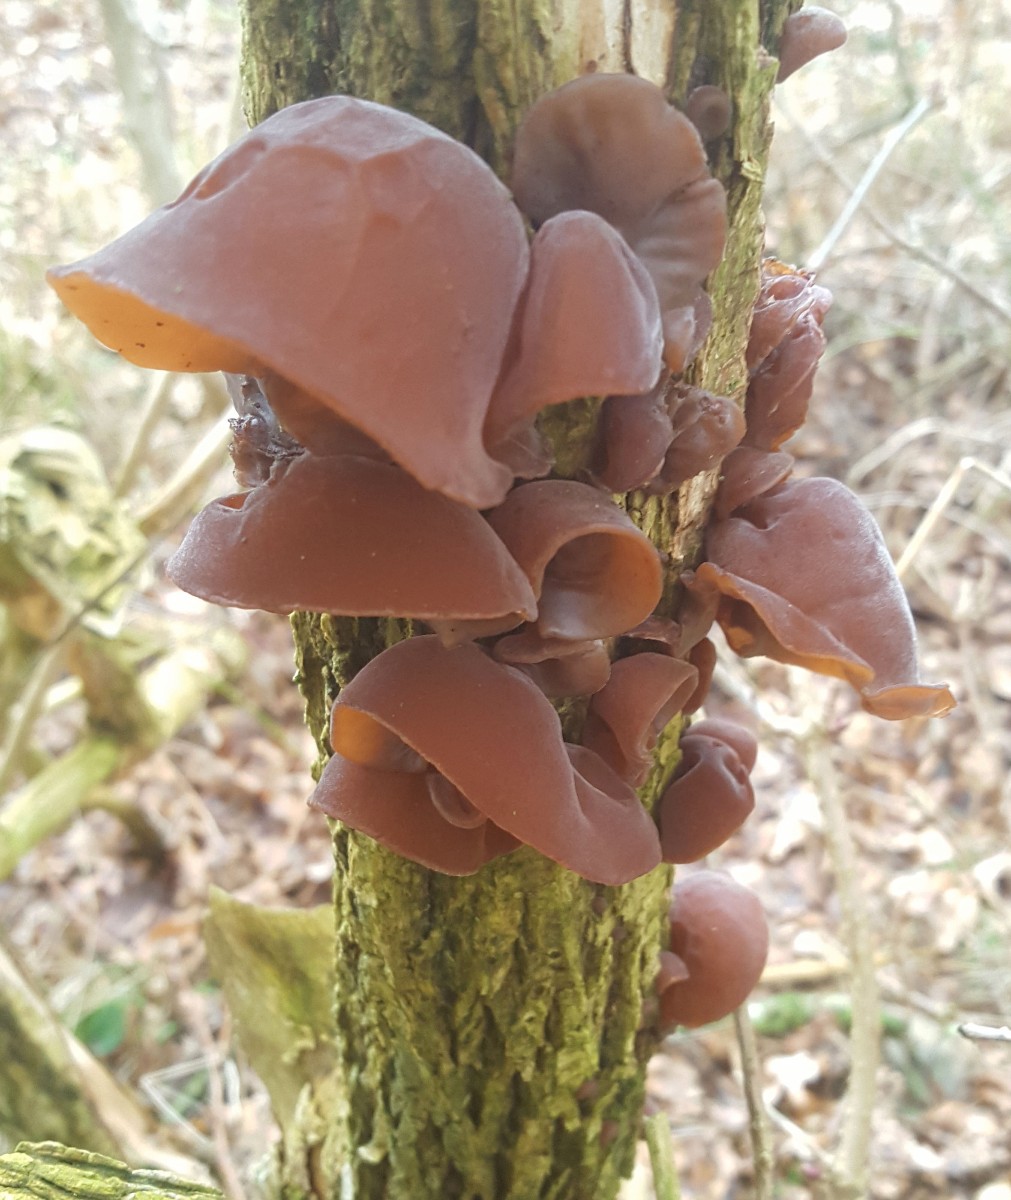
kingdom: Fungi
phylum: Basidiomycota
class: Agaricomycetes
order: Auriculariales
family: Auriculariaceae
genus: Auricularia
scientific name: Auricularia auricula-judae
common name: almindelig judasøre
